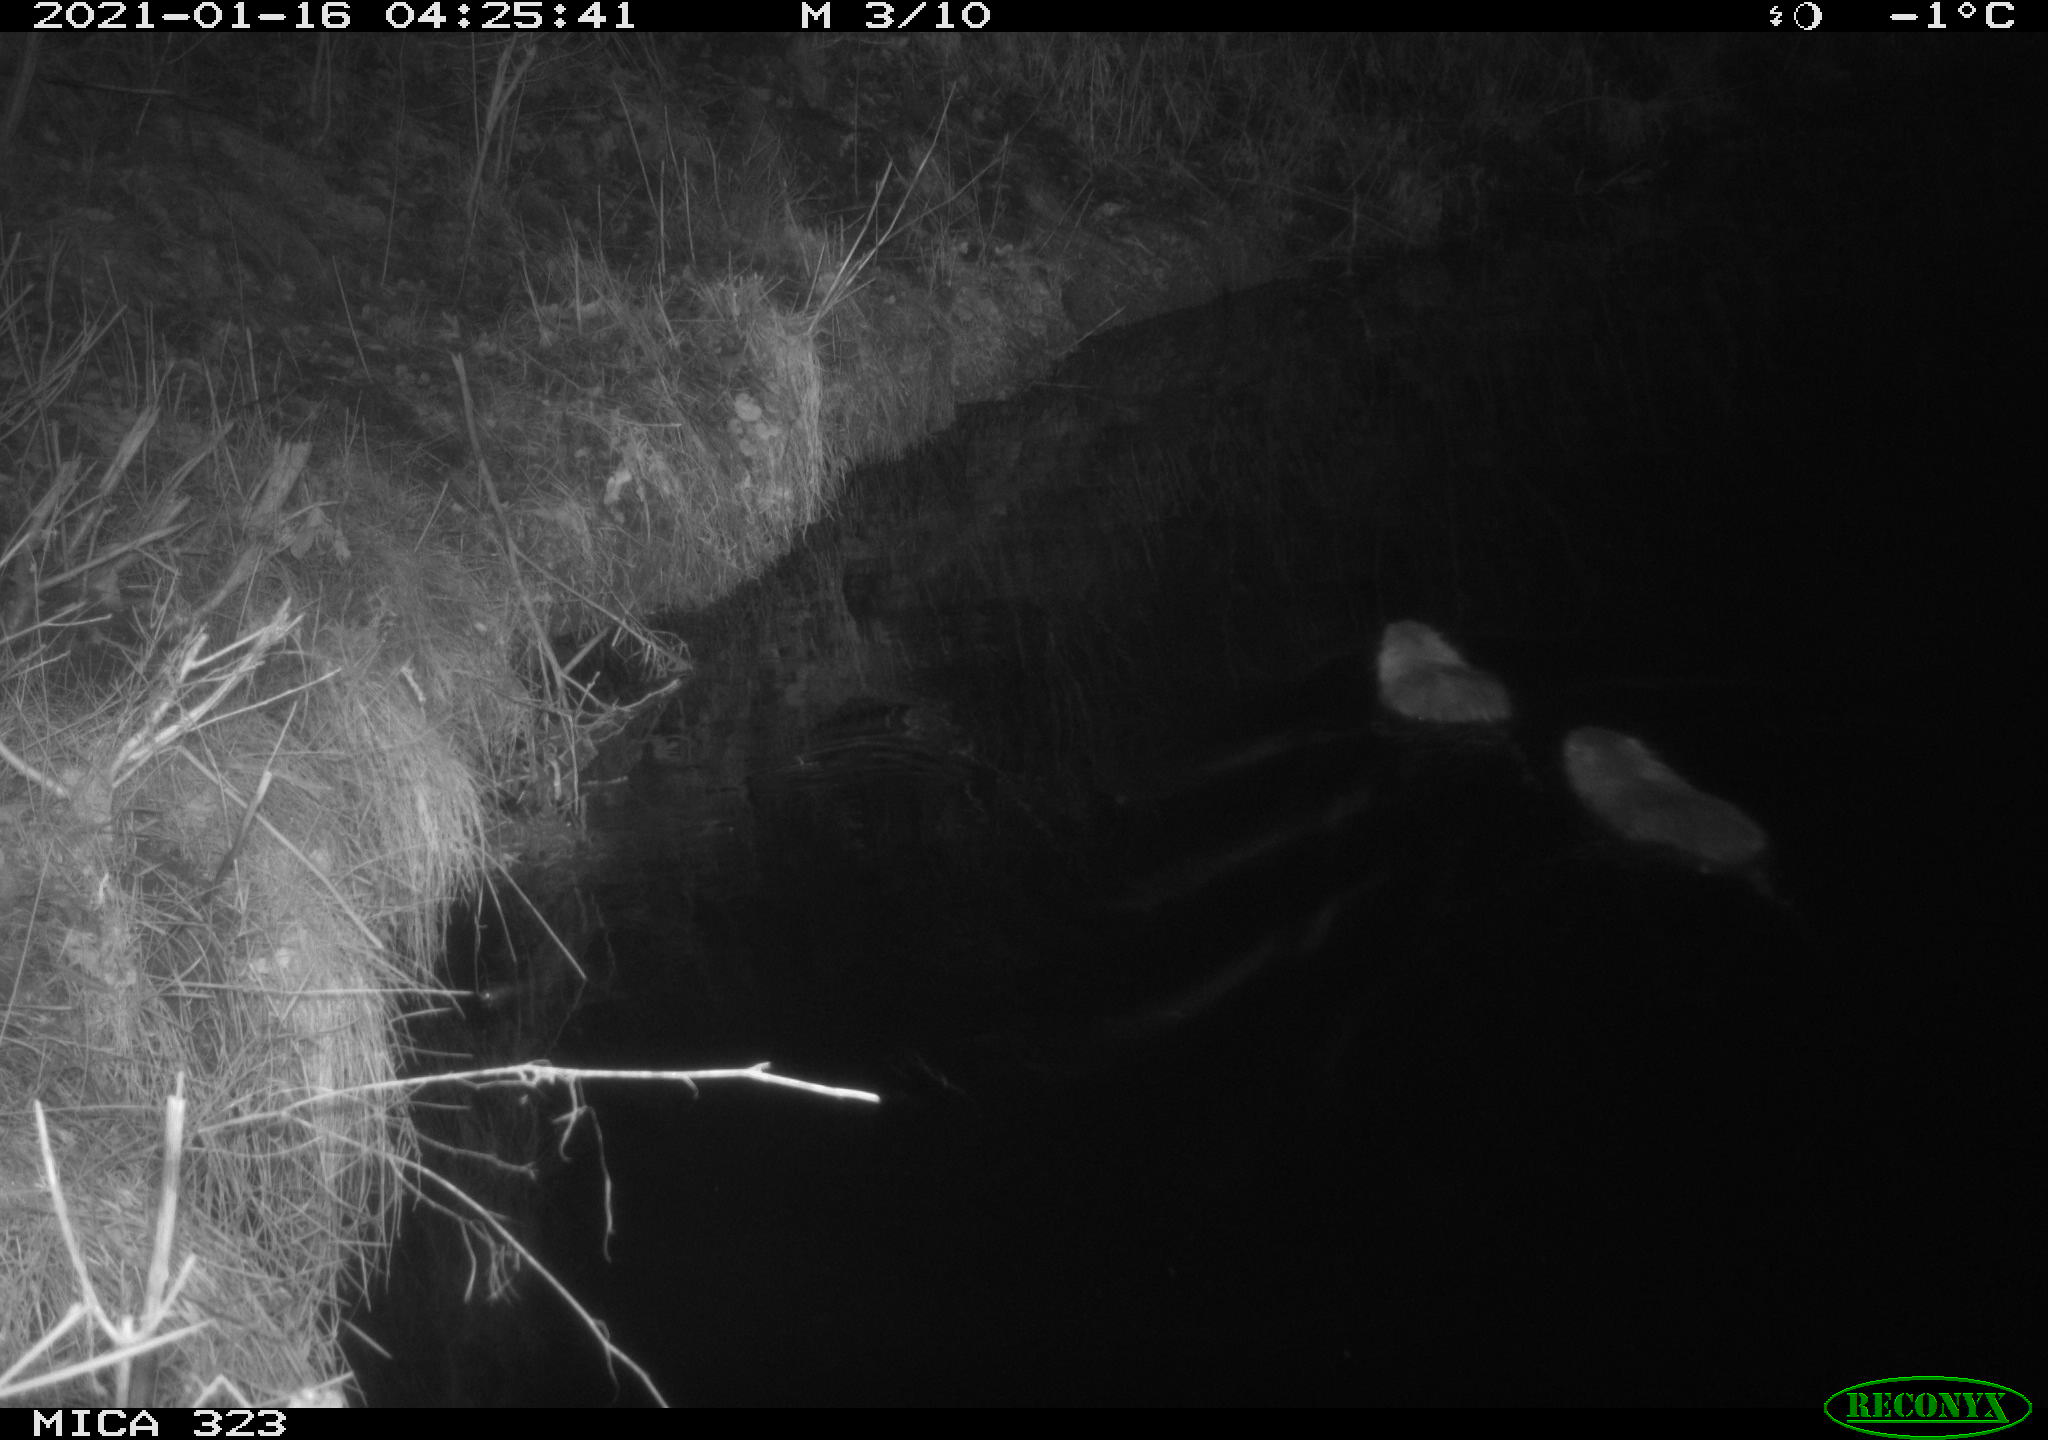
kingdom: Animalia
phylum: Chordata
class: Mammalia
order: Rodentia
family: Myocastoridae
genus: Myocastor
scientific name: Myocastor coypus
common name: Coypu
